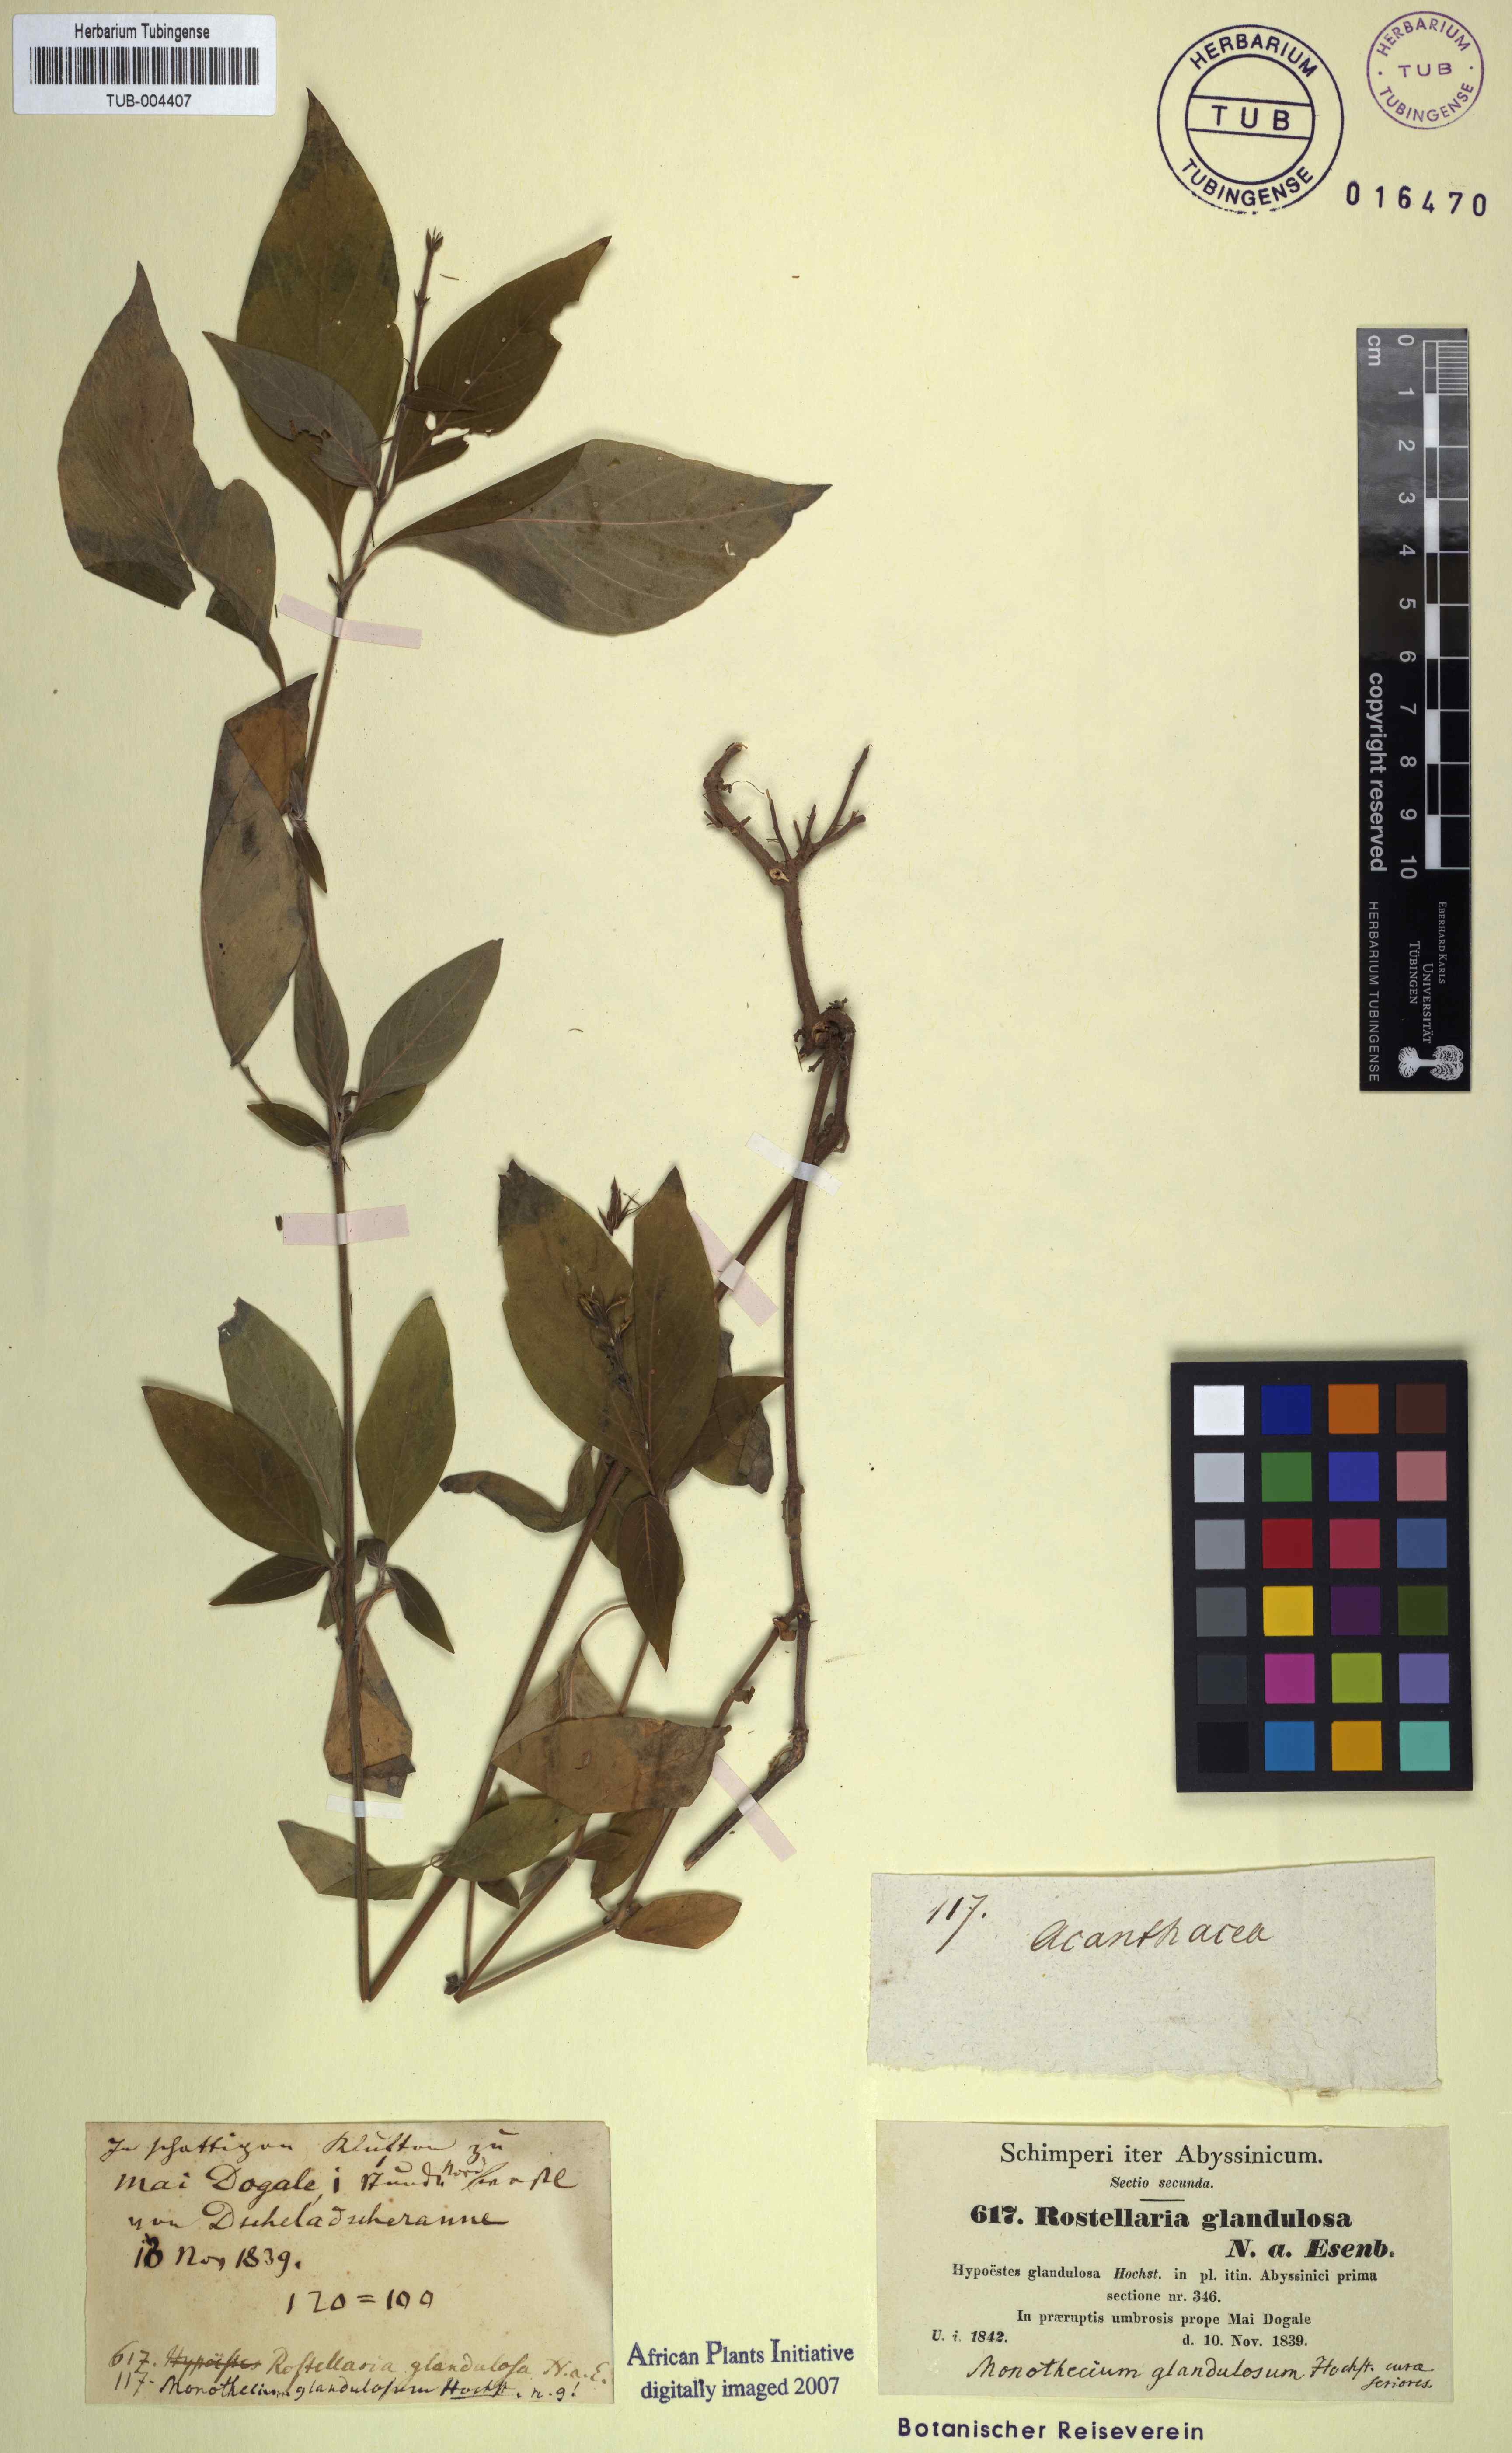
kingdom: Plantae
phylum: Tracheophyta
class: Magnoliopsida
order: Lamiales
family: Acanthaceae
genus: Monothecium
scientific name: Monothecium glandulosum
